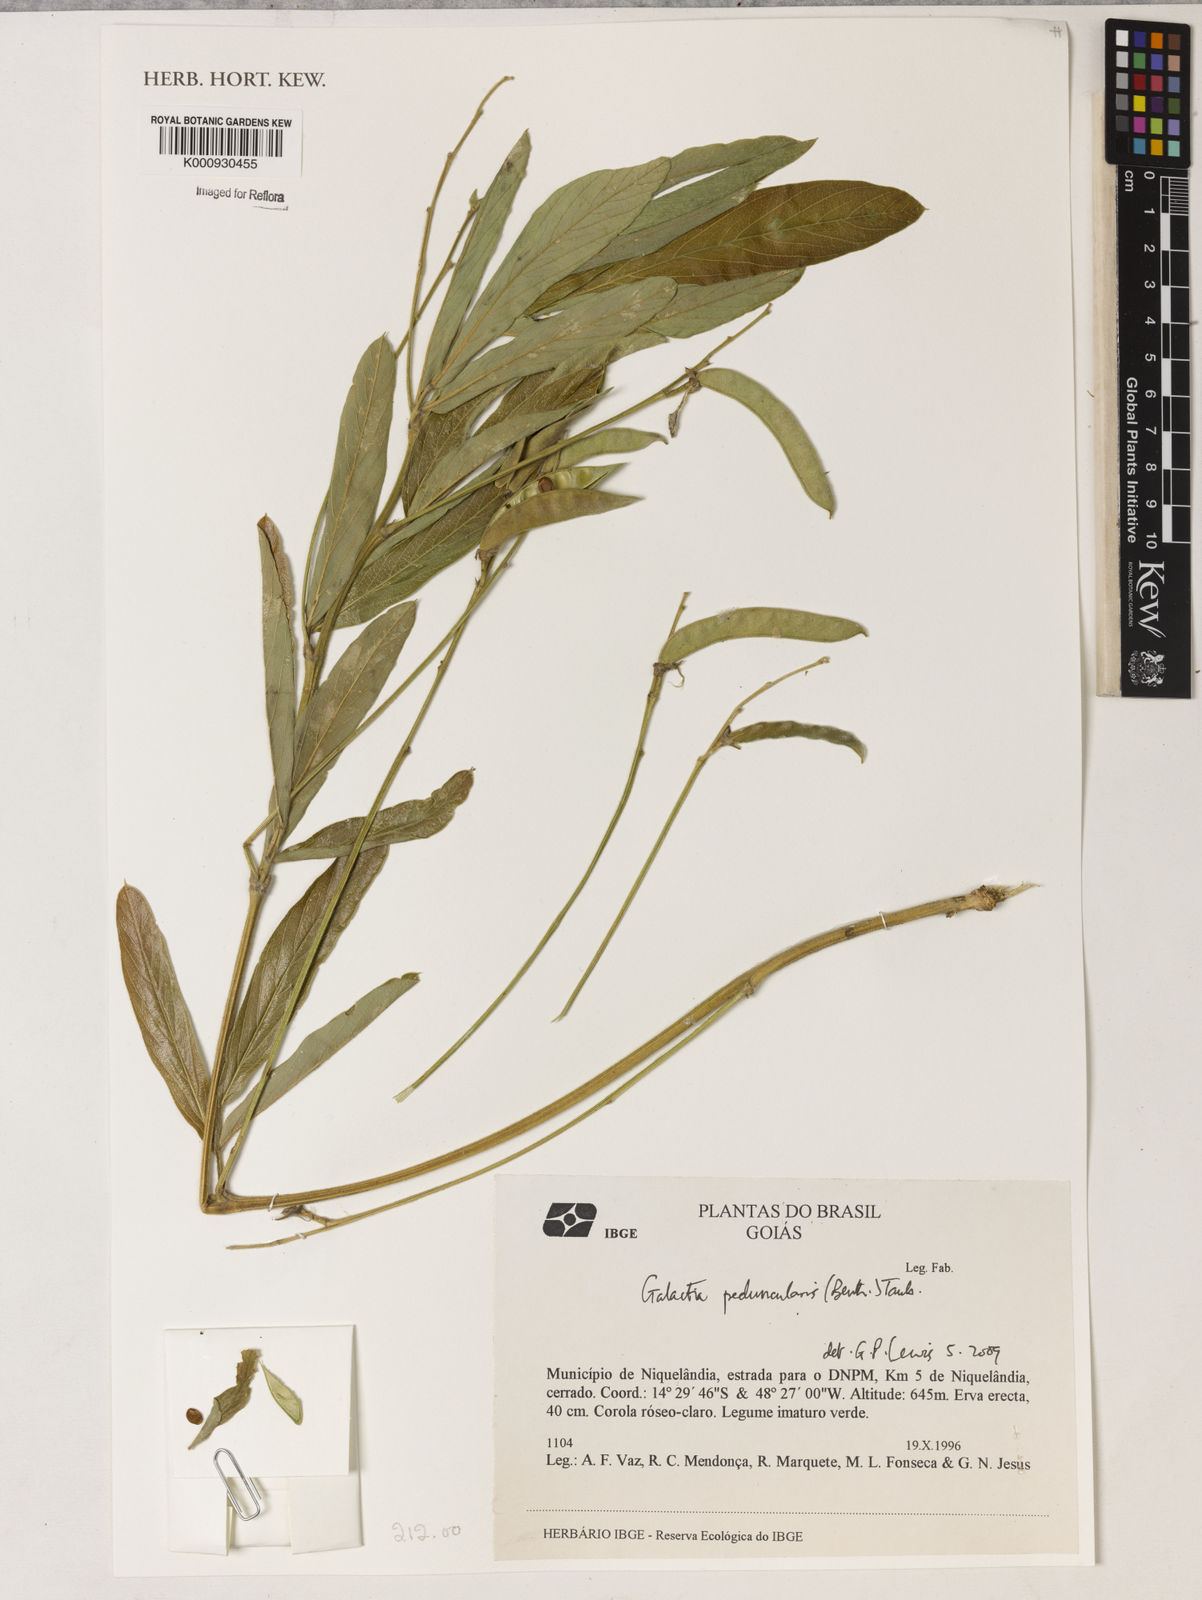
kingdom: Plantae
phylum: Tracheophyta
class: Magnoliopsida
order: Fabales
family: Fabaceae
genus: Galactia
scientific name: Galactia
